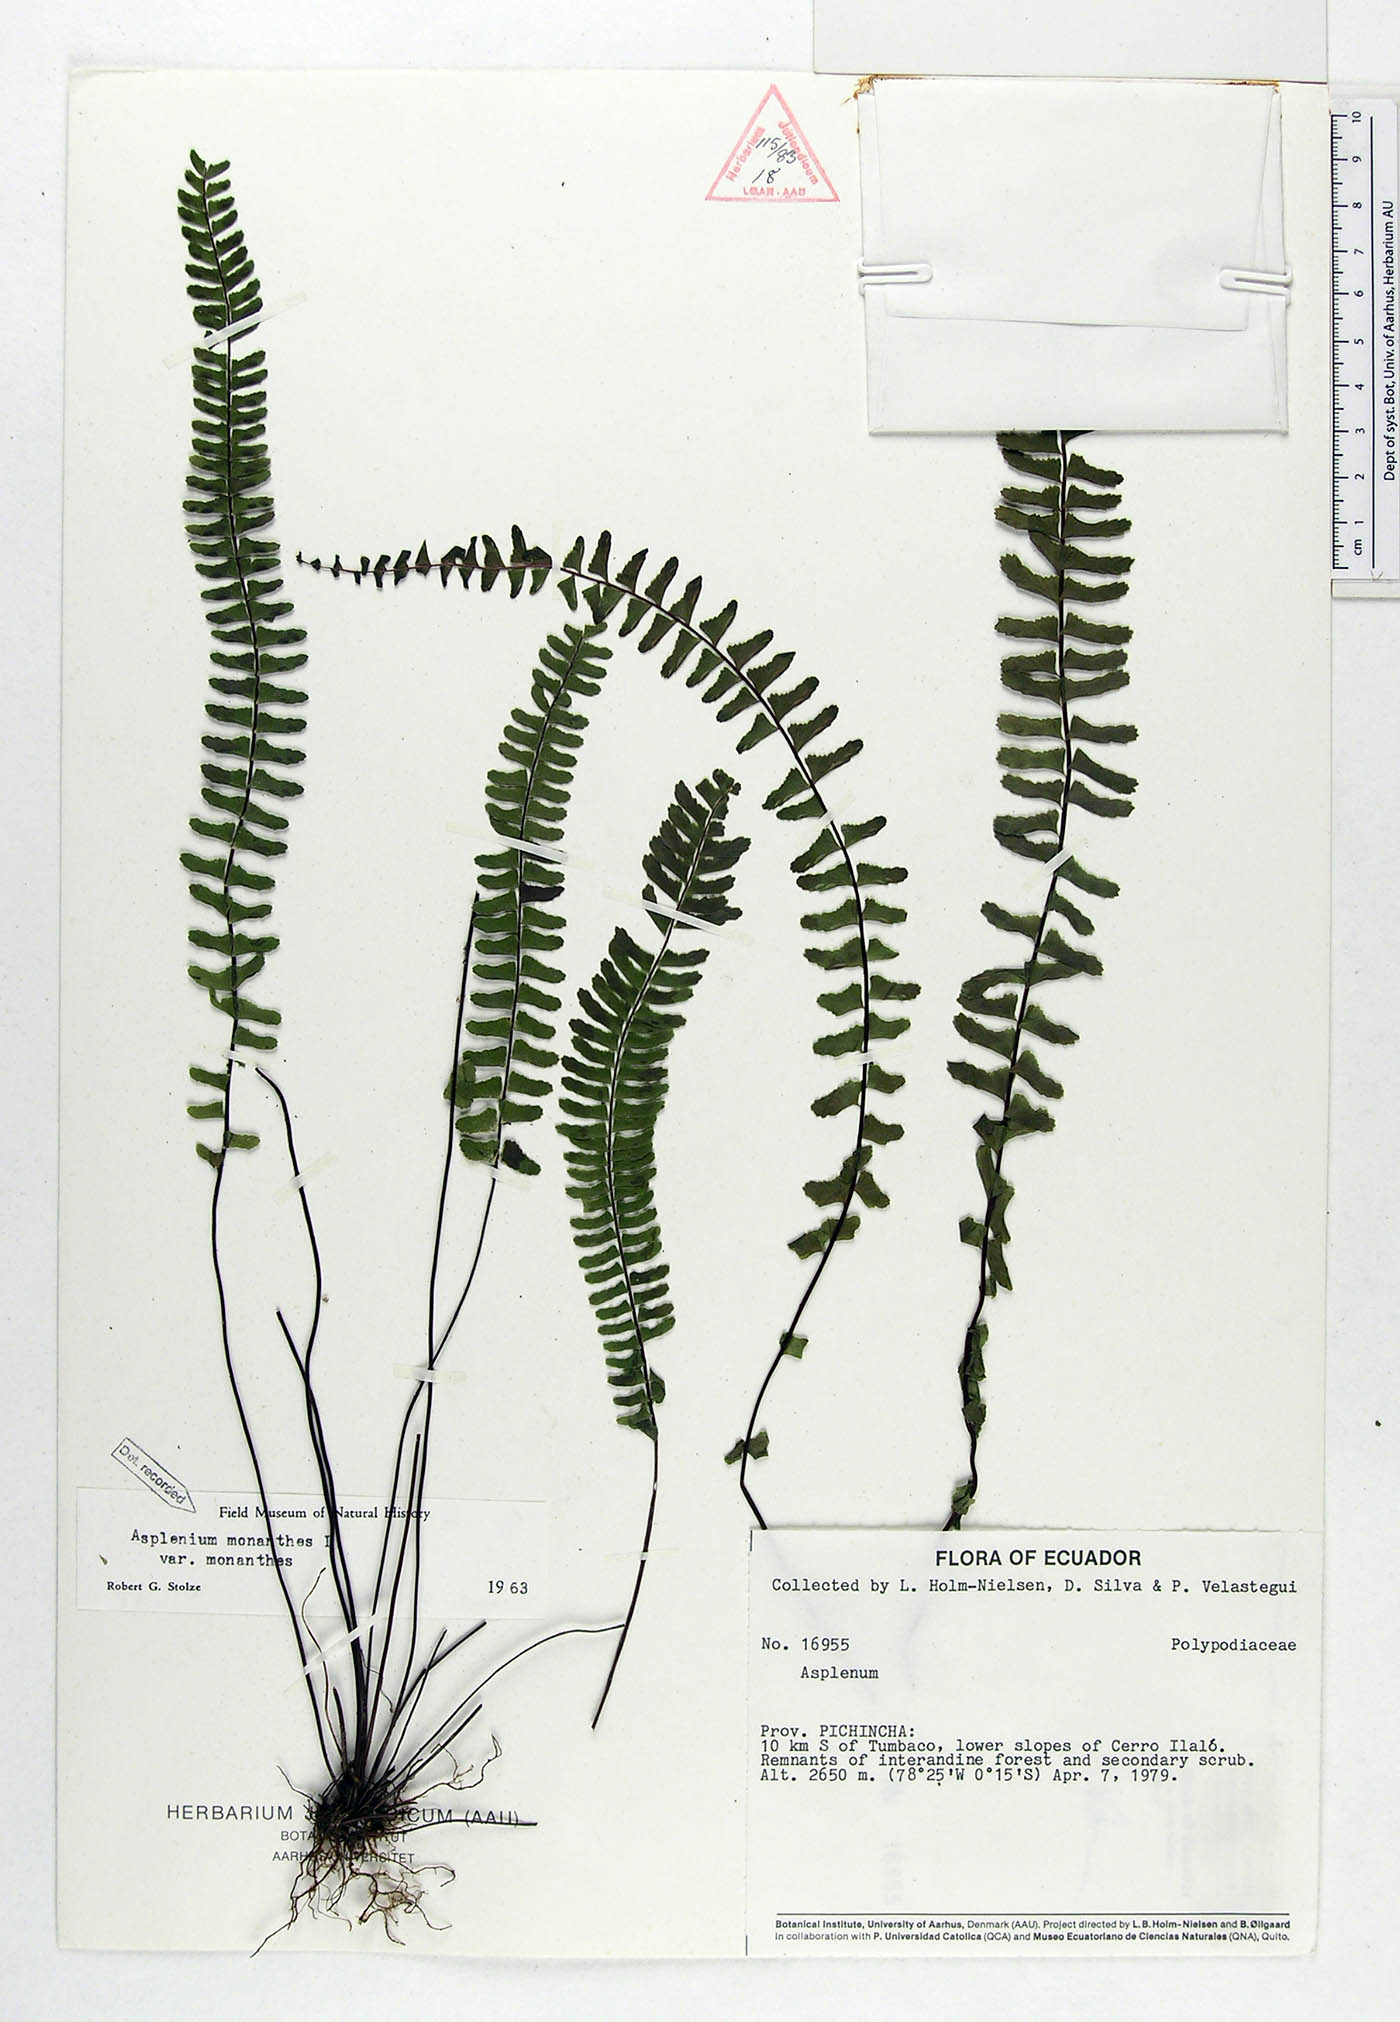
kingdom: Plantae
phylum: Tracheophyta
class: Polypodiopsida
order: Polypodiales
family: Aspleniaceae
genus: Asplenium
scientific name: Asplenium monanthes
